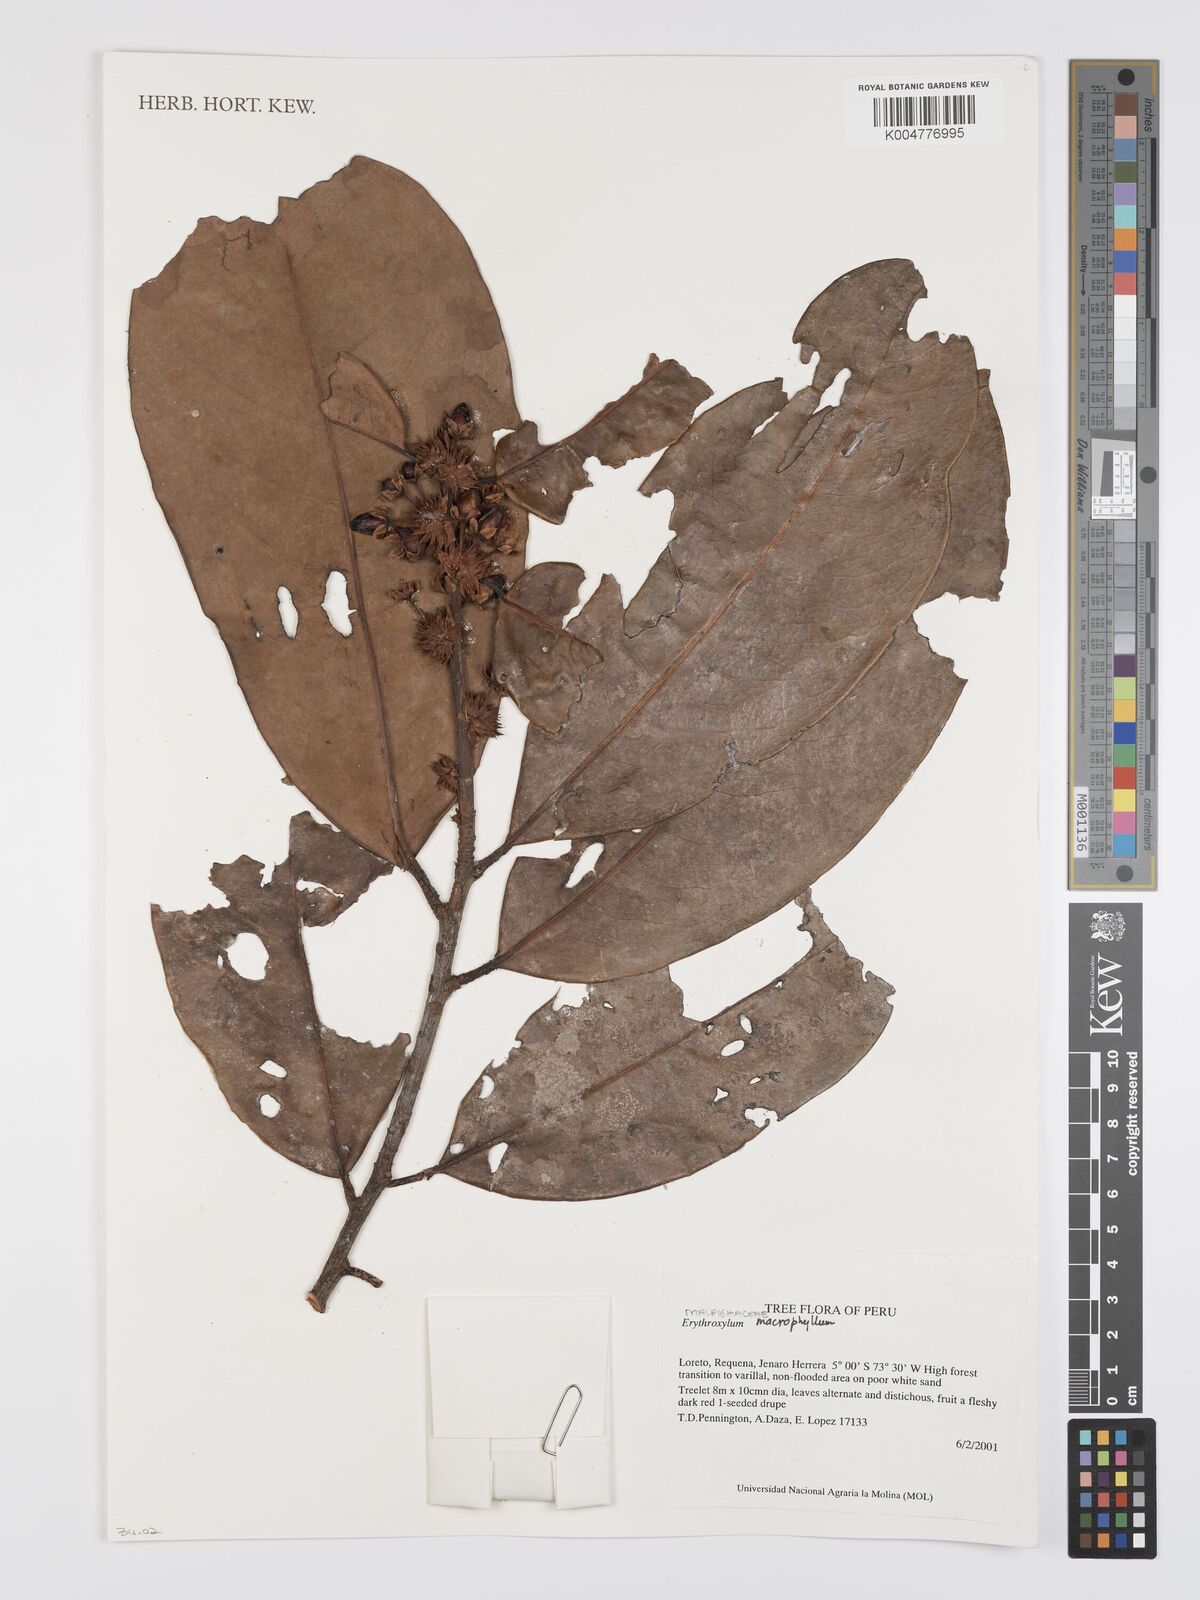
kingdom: Plantae
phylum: Tracheophyta
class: Magnoliopsida
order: Malpighiales
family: Erythroxylaceae
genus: Erythroxylum
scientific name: Erythroxylum
